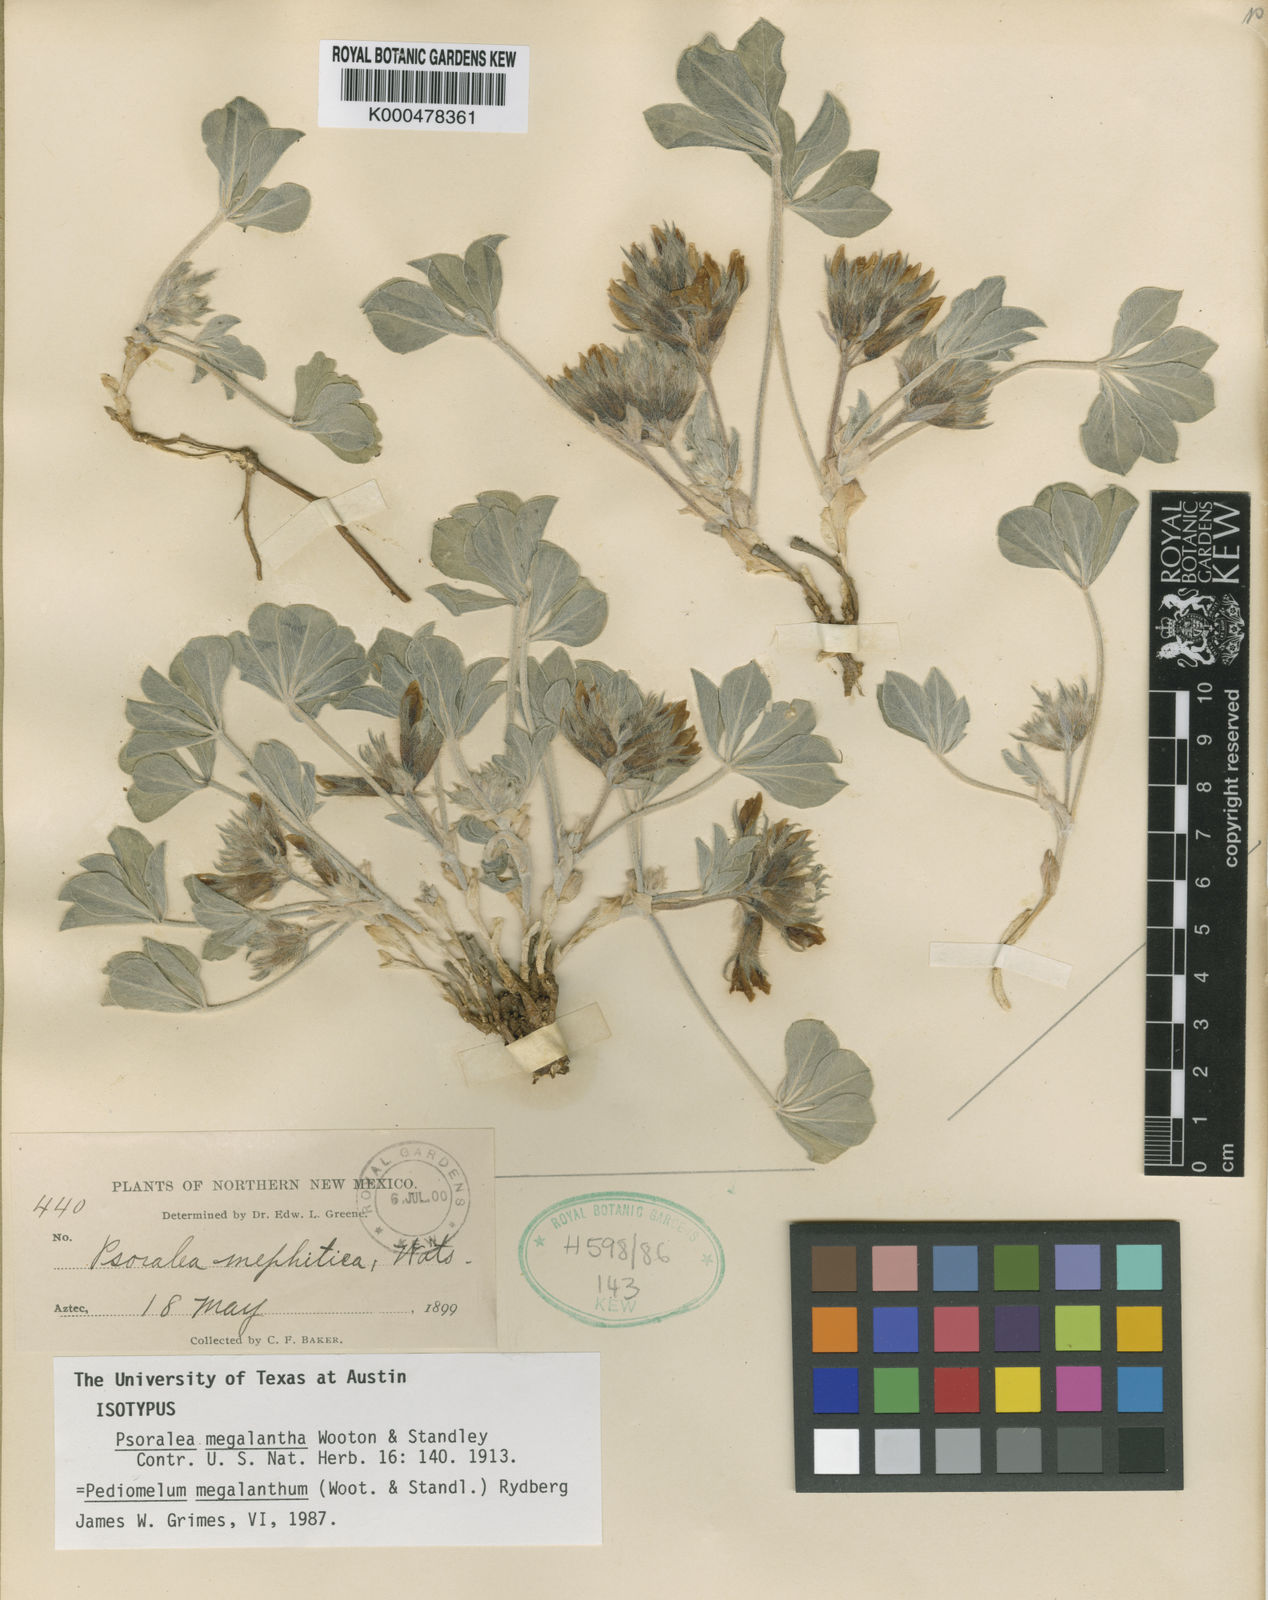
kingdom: Plantae
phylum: Tracheophyta
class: Magnoliopsida
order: Fabales
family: Fabaceae
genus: Pediomelum
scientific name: Pediomelum megalanthum
